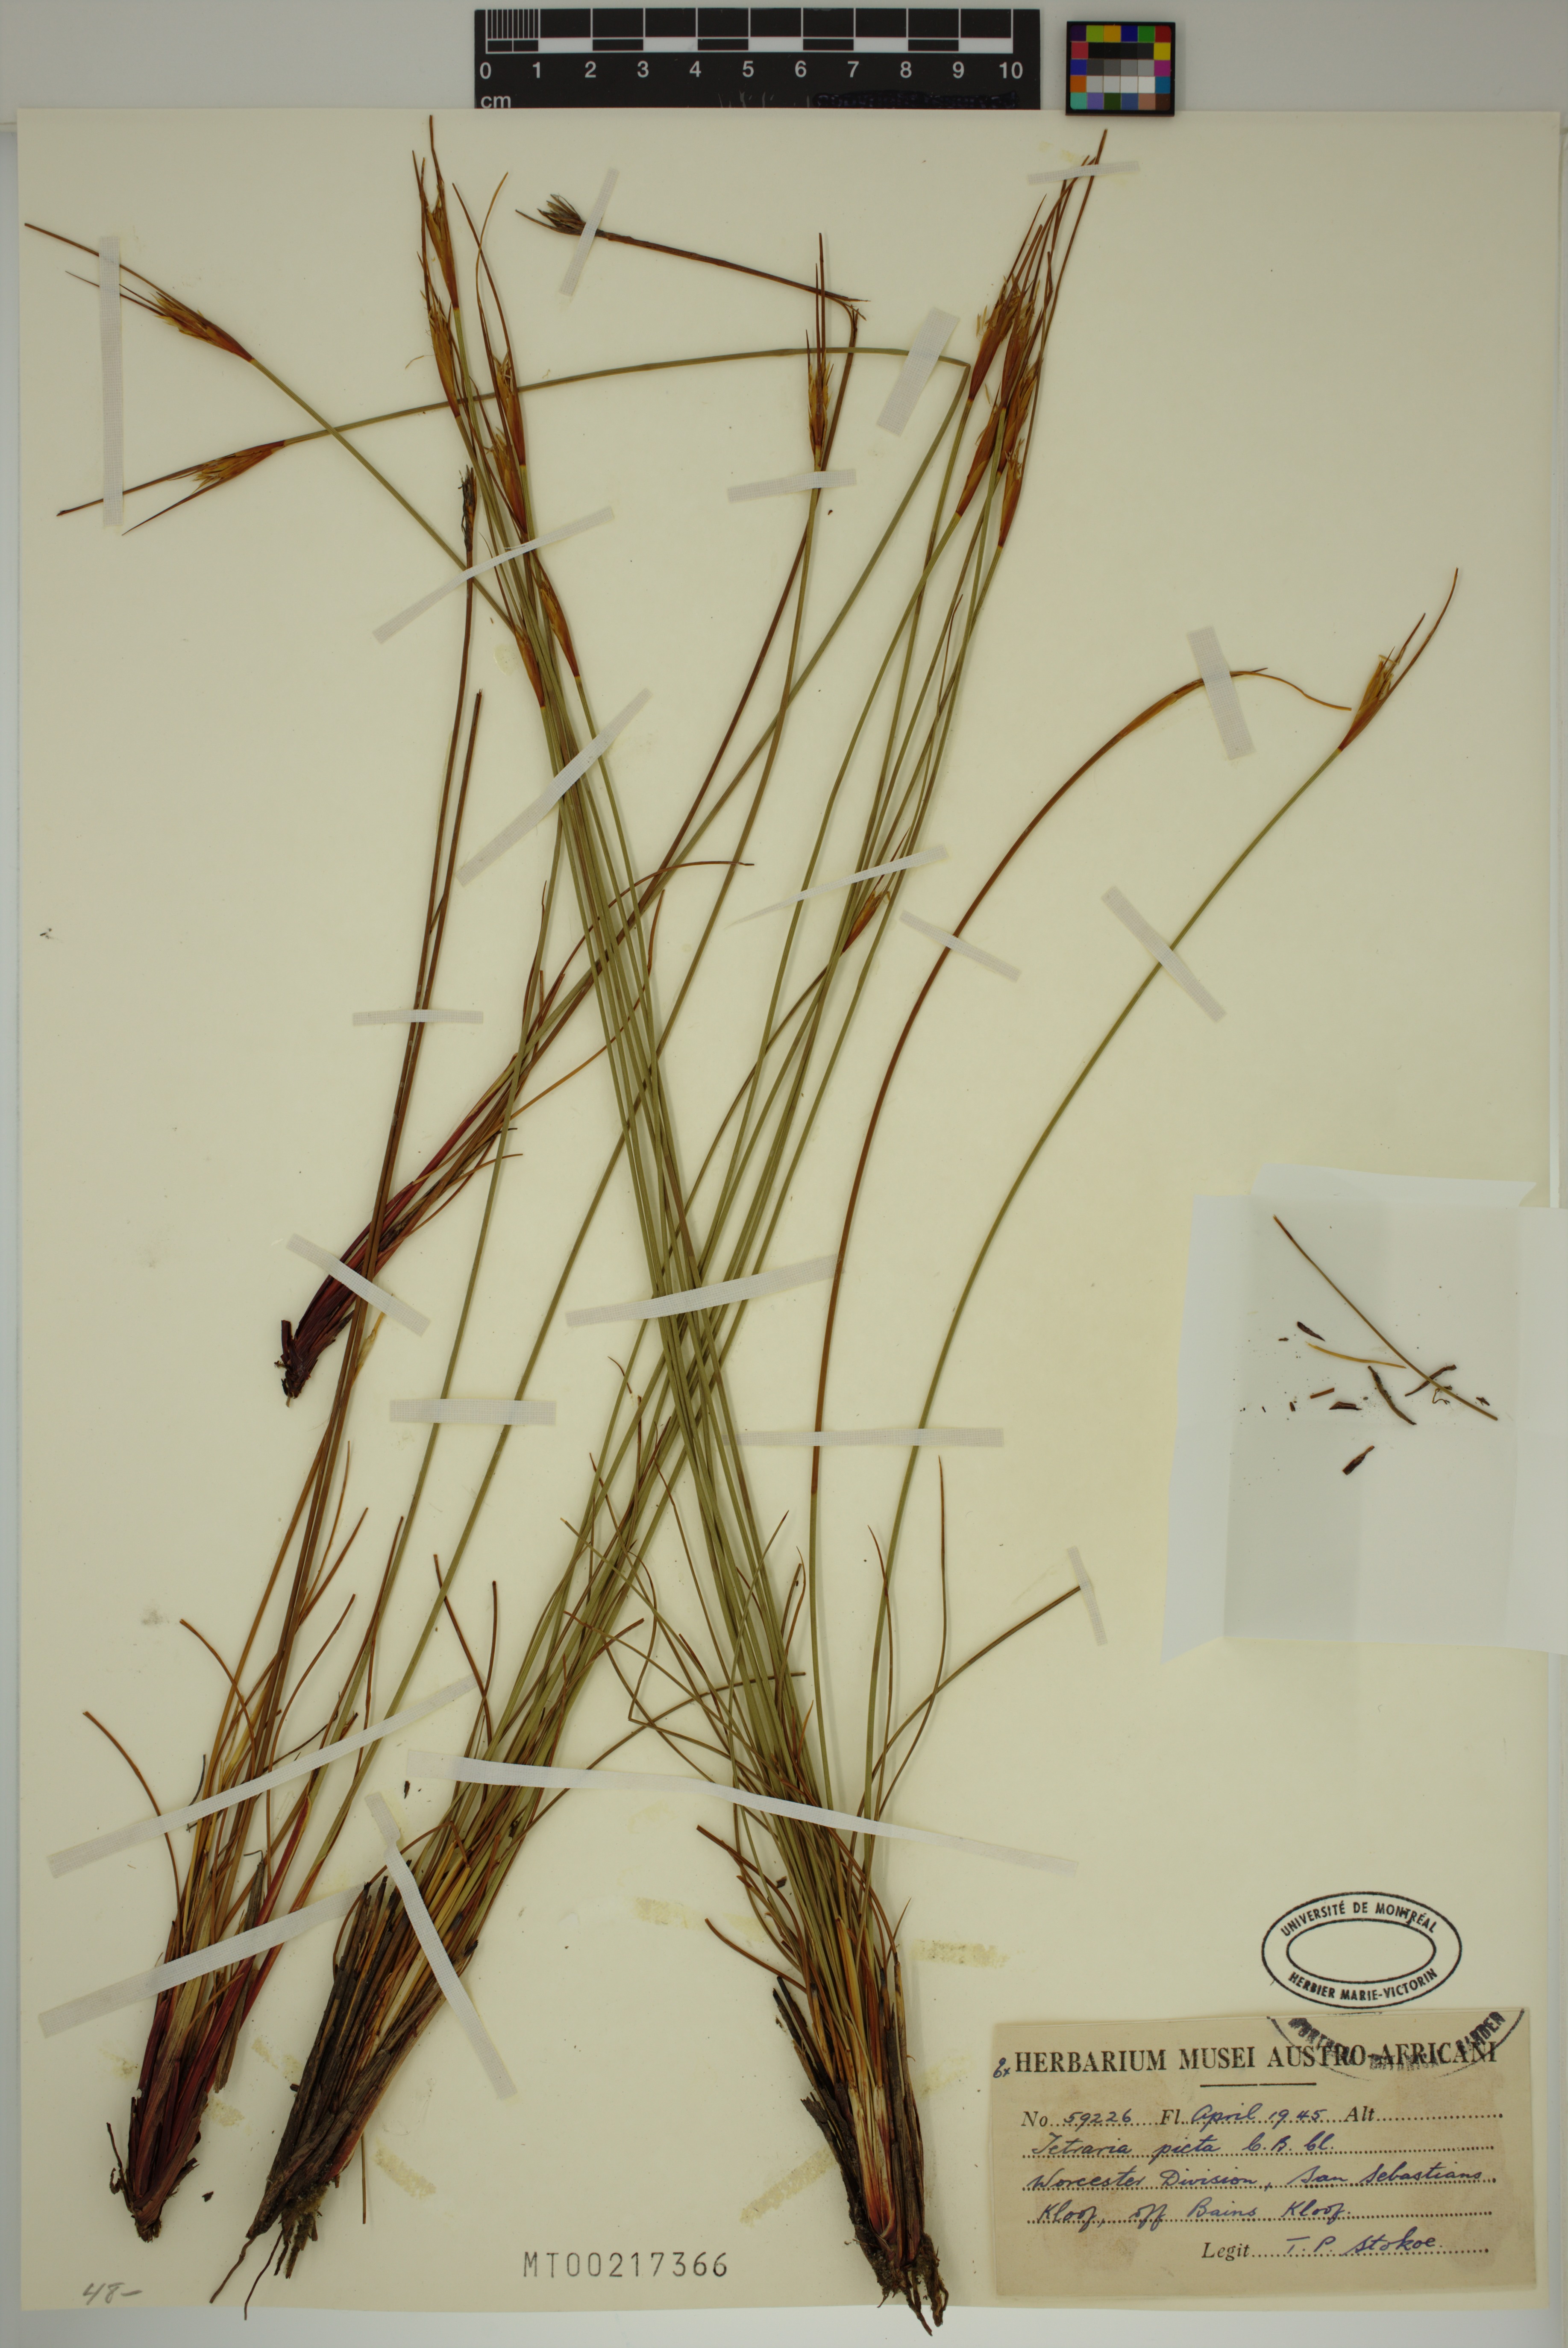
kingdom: Plantae
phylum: Tracheophyta
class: Liliopsida
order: Poales
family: Cyperaceae
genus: Schoenus
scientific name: Schoenus pictus
